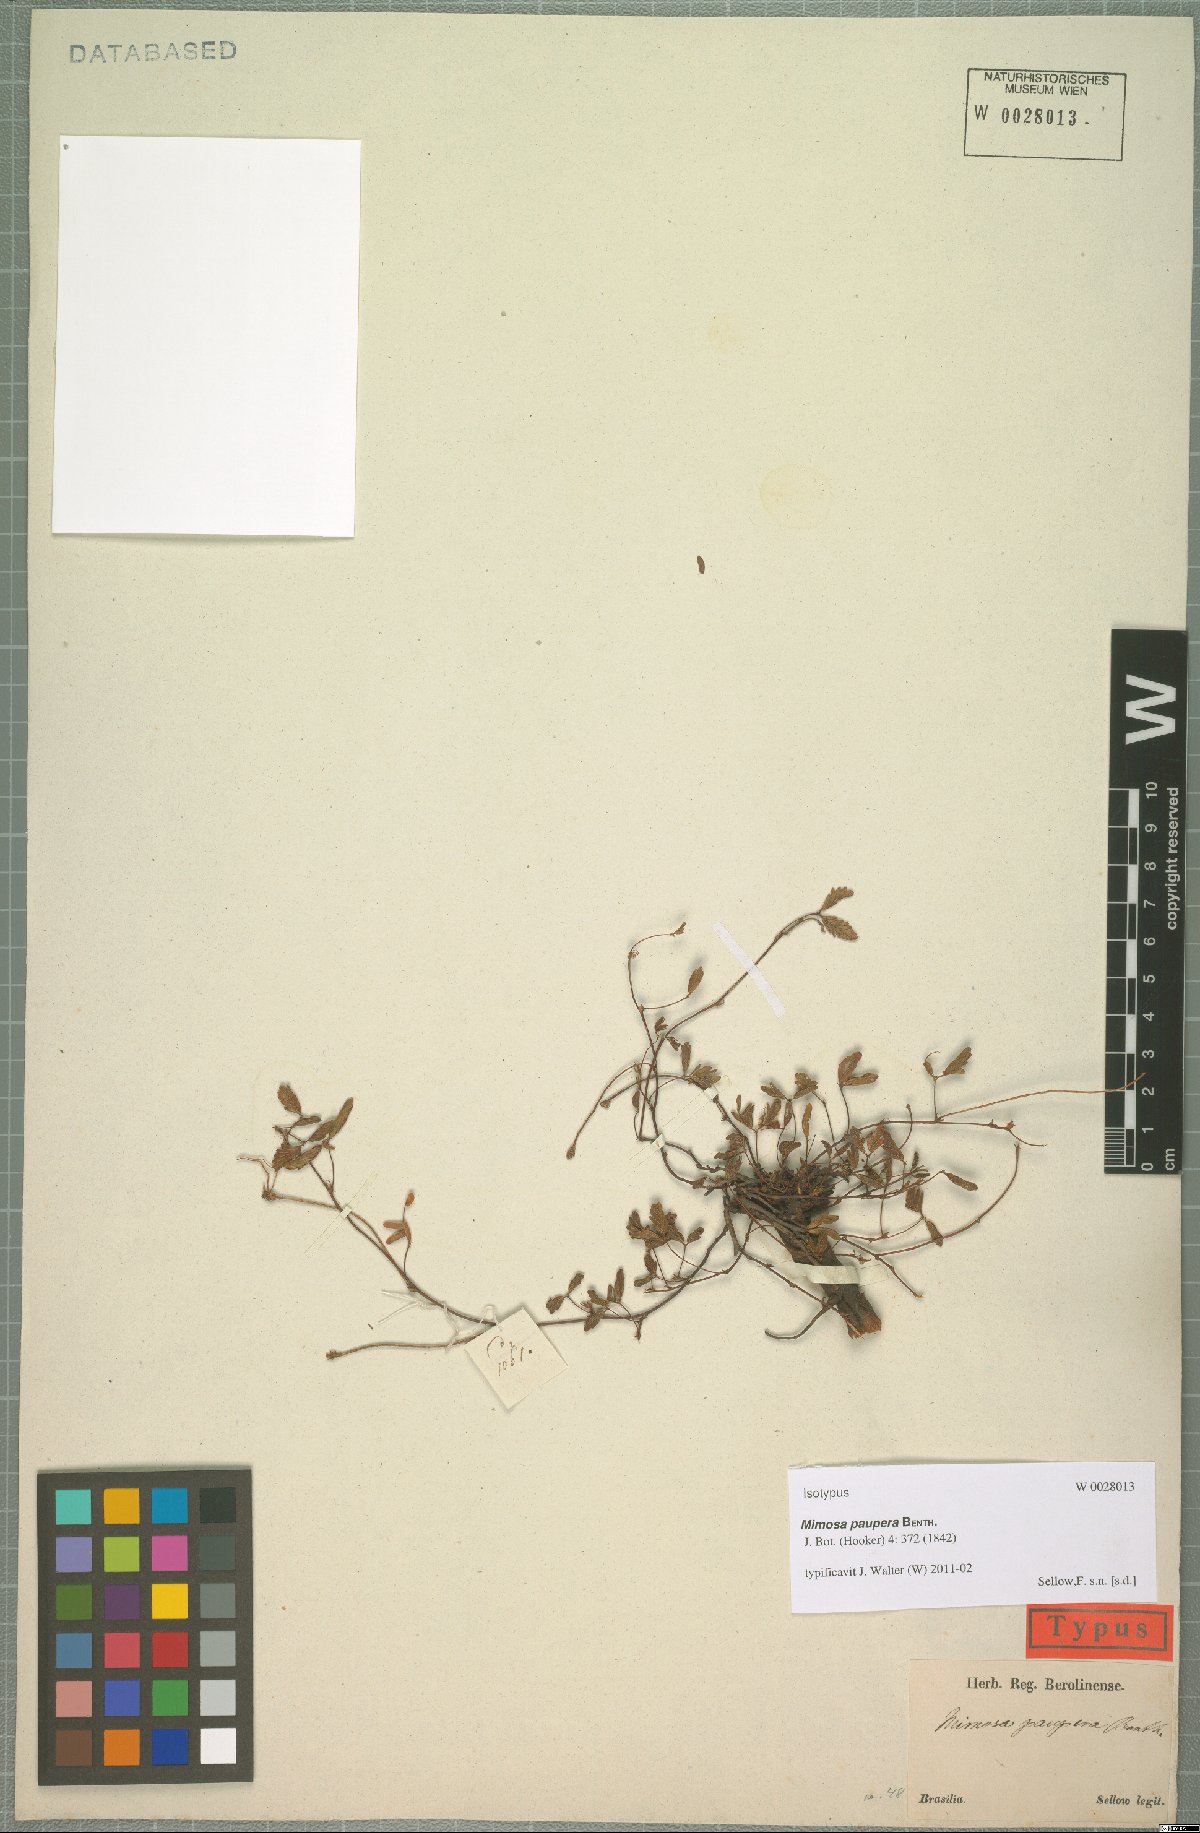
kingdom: Plantae
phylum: Tracheophyta
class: Magnoliopsida
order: Fabales
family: Fabaceae
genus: Mimosa
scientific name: Mimosa paupera
